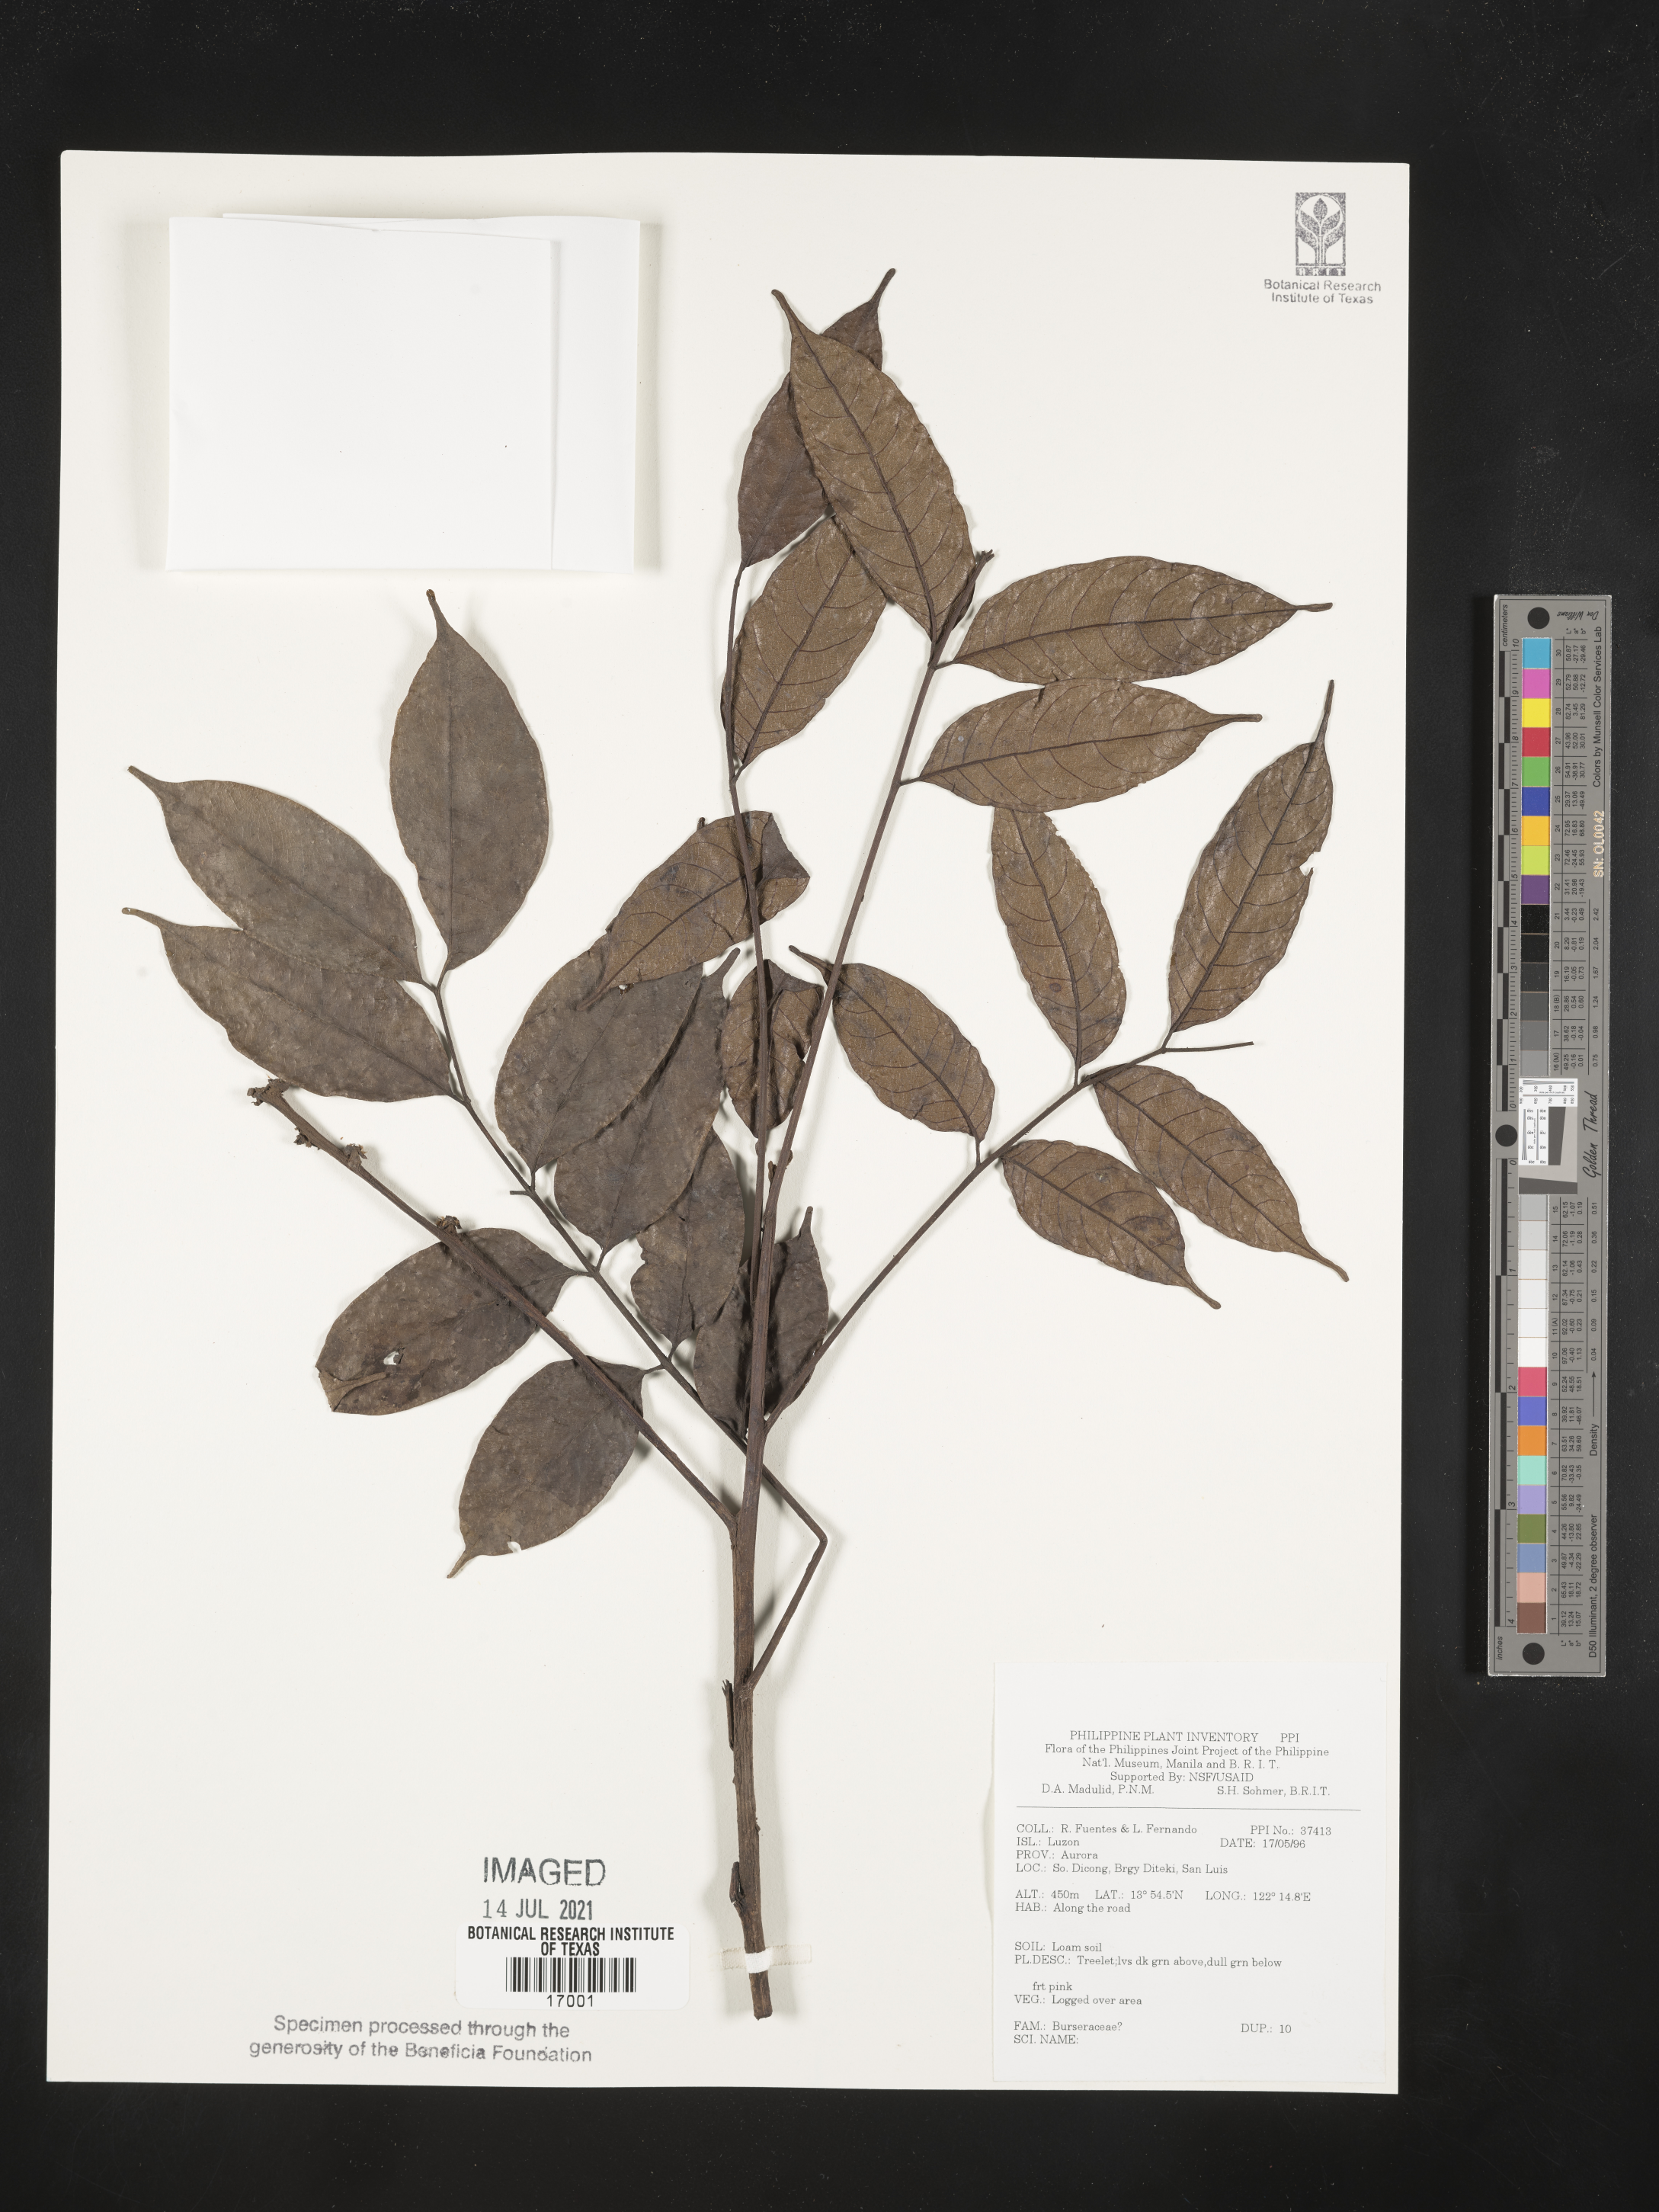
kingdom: Plantae
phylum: Tracheophyta
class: Magnoliopsida
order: Sapindales
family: Burseraceae
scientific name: Burseraceae
